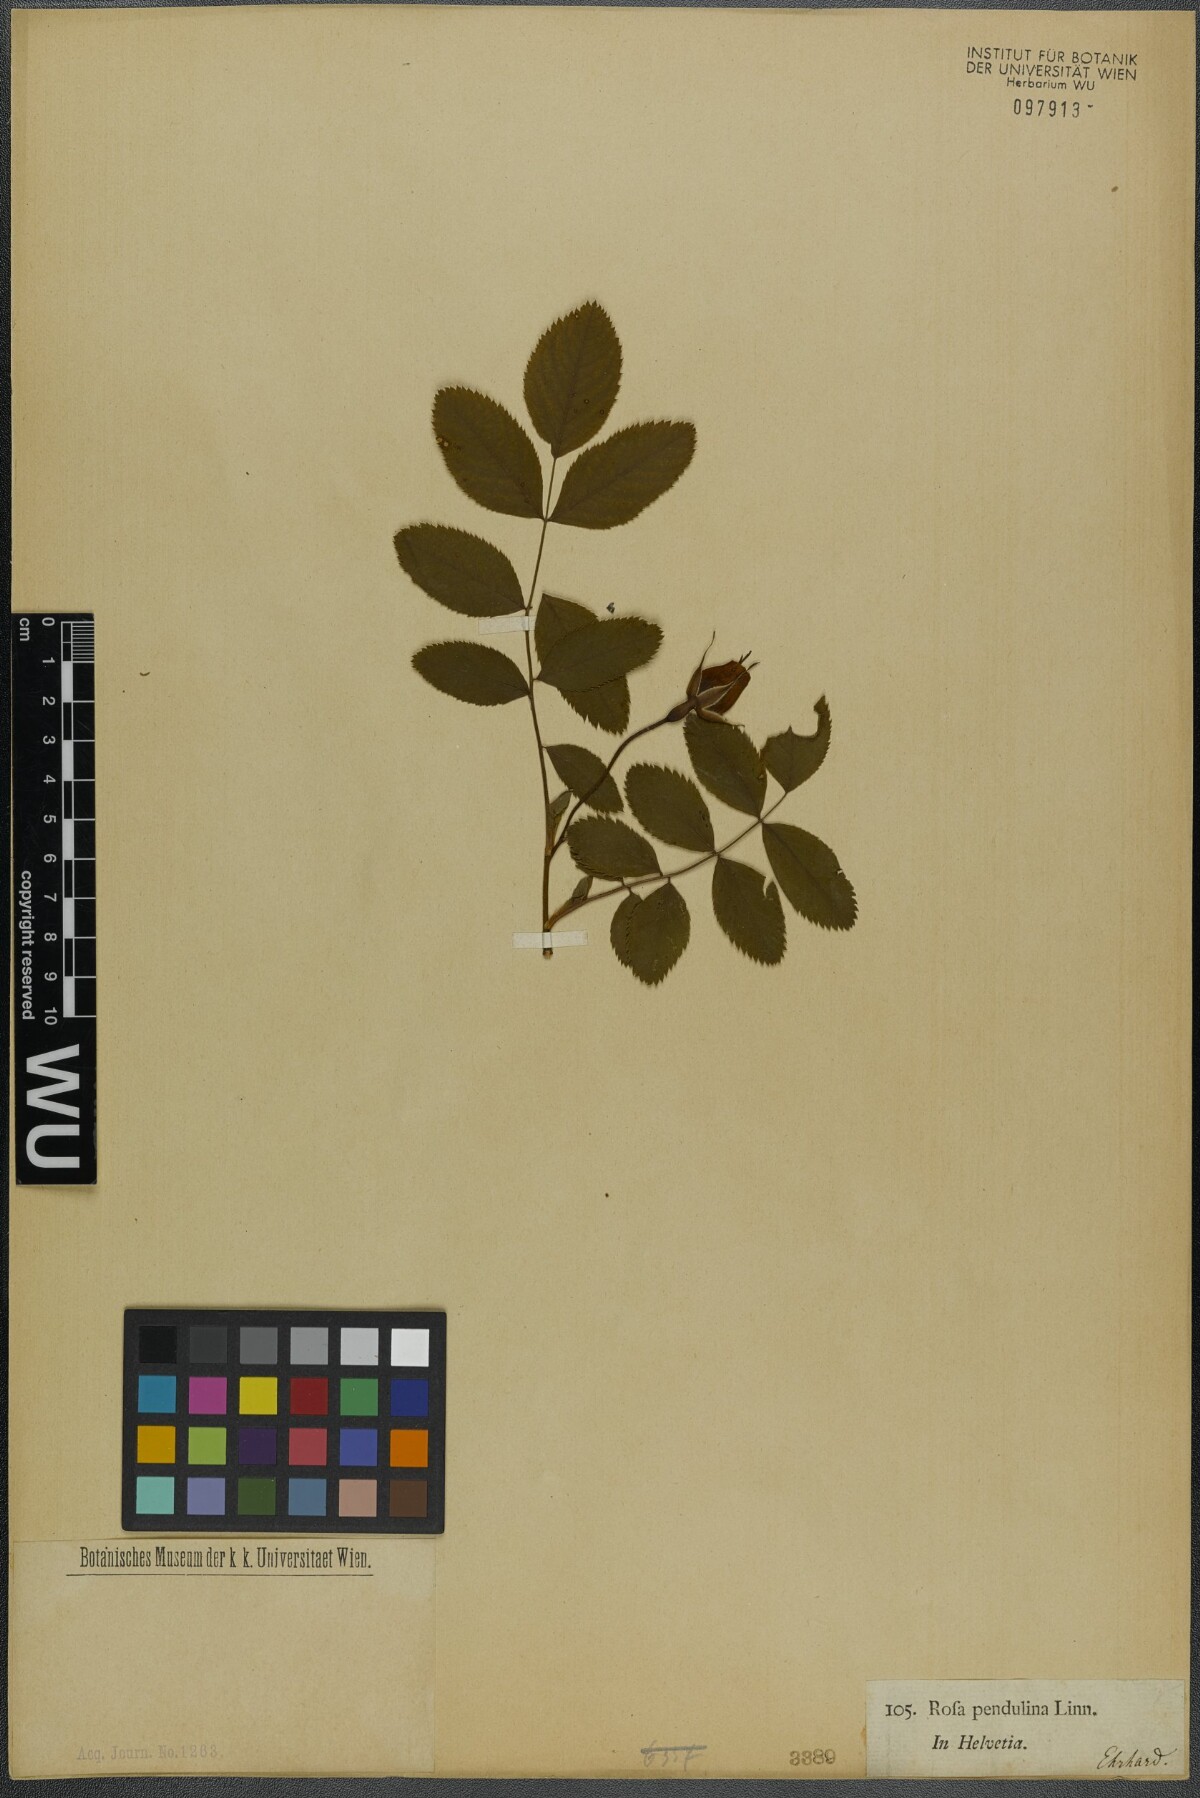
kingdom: Plantae
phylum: Tracheophyta
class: Magnoliopsida
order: Rosales
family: Rosaceae
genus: Rosa
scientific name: Rosa pendulina
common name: Alpine rose
